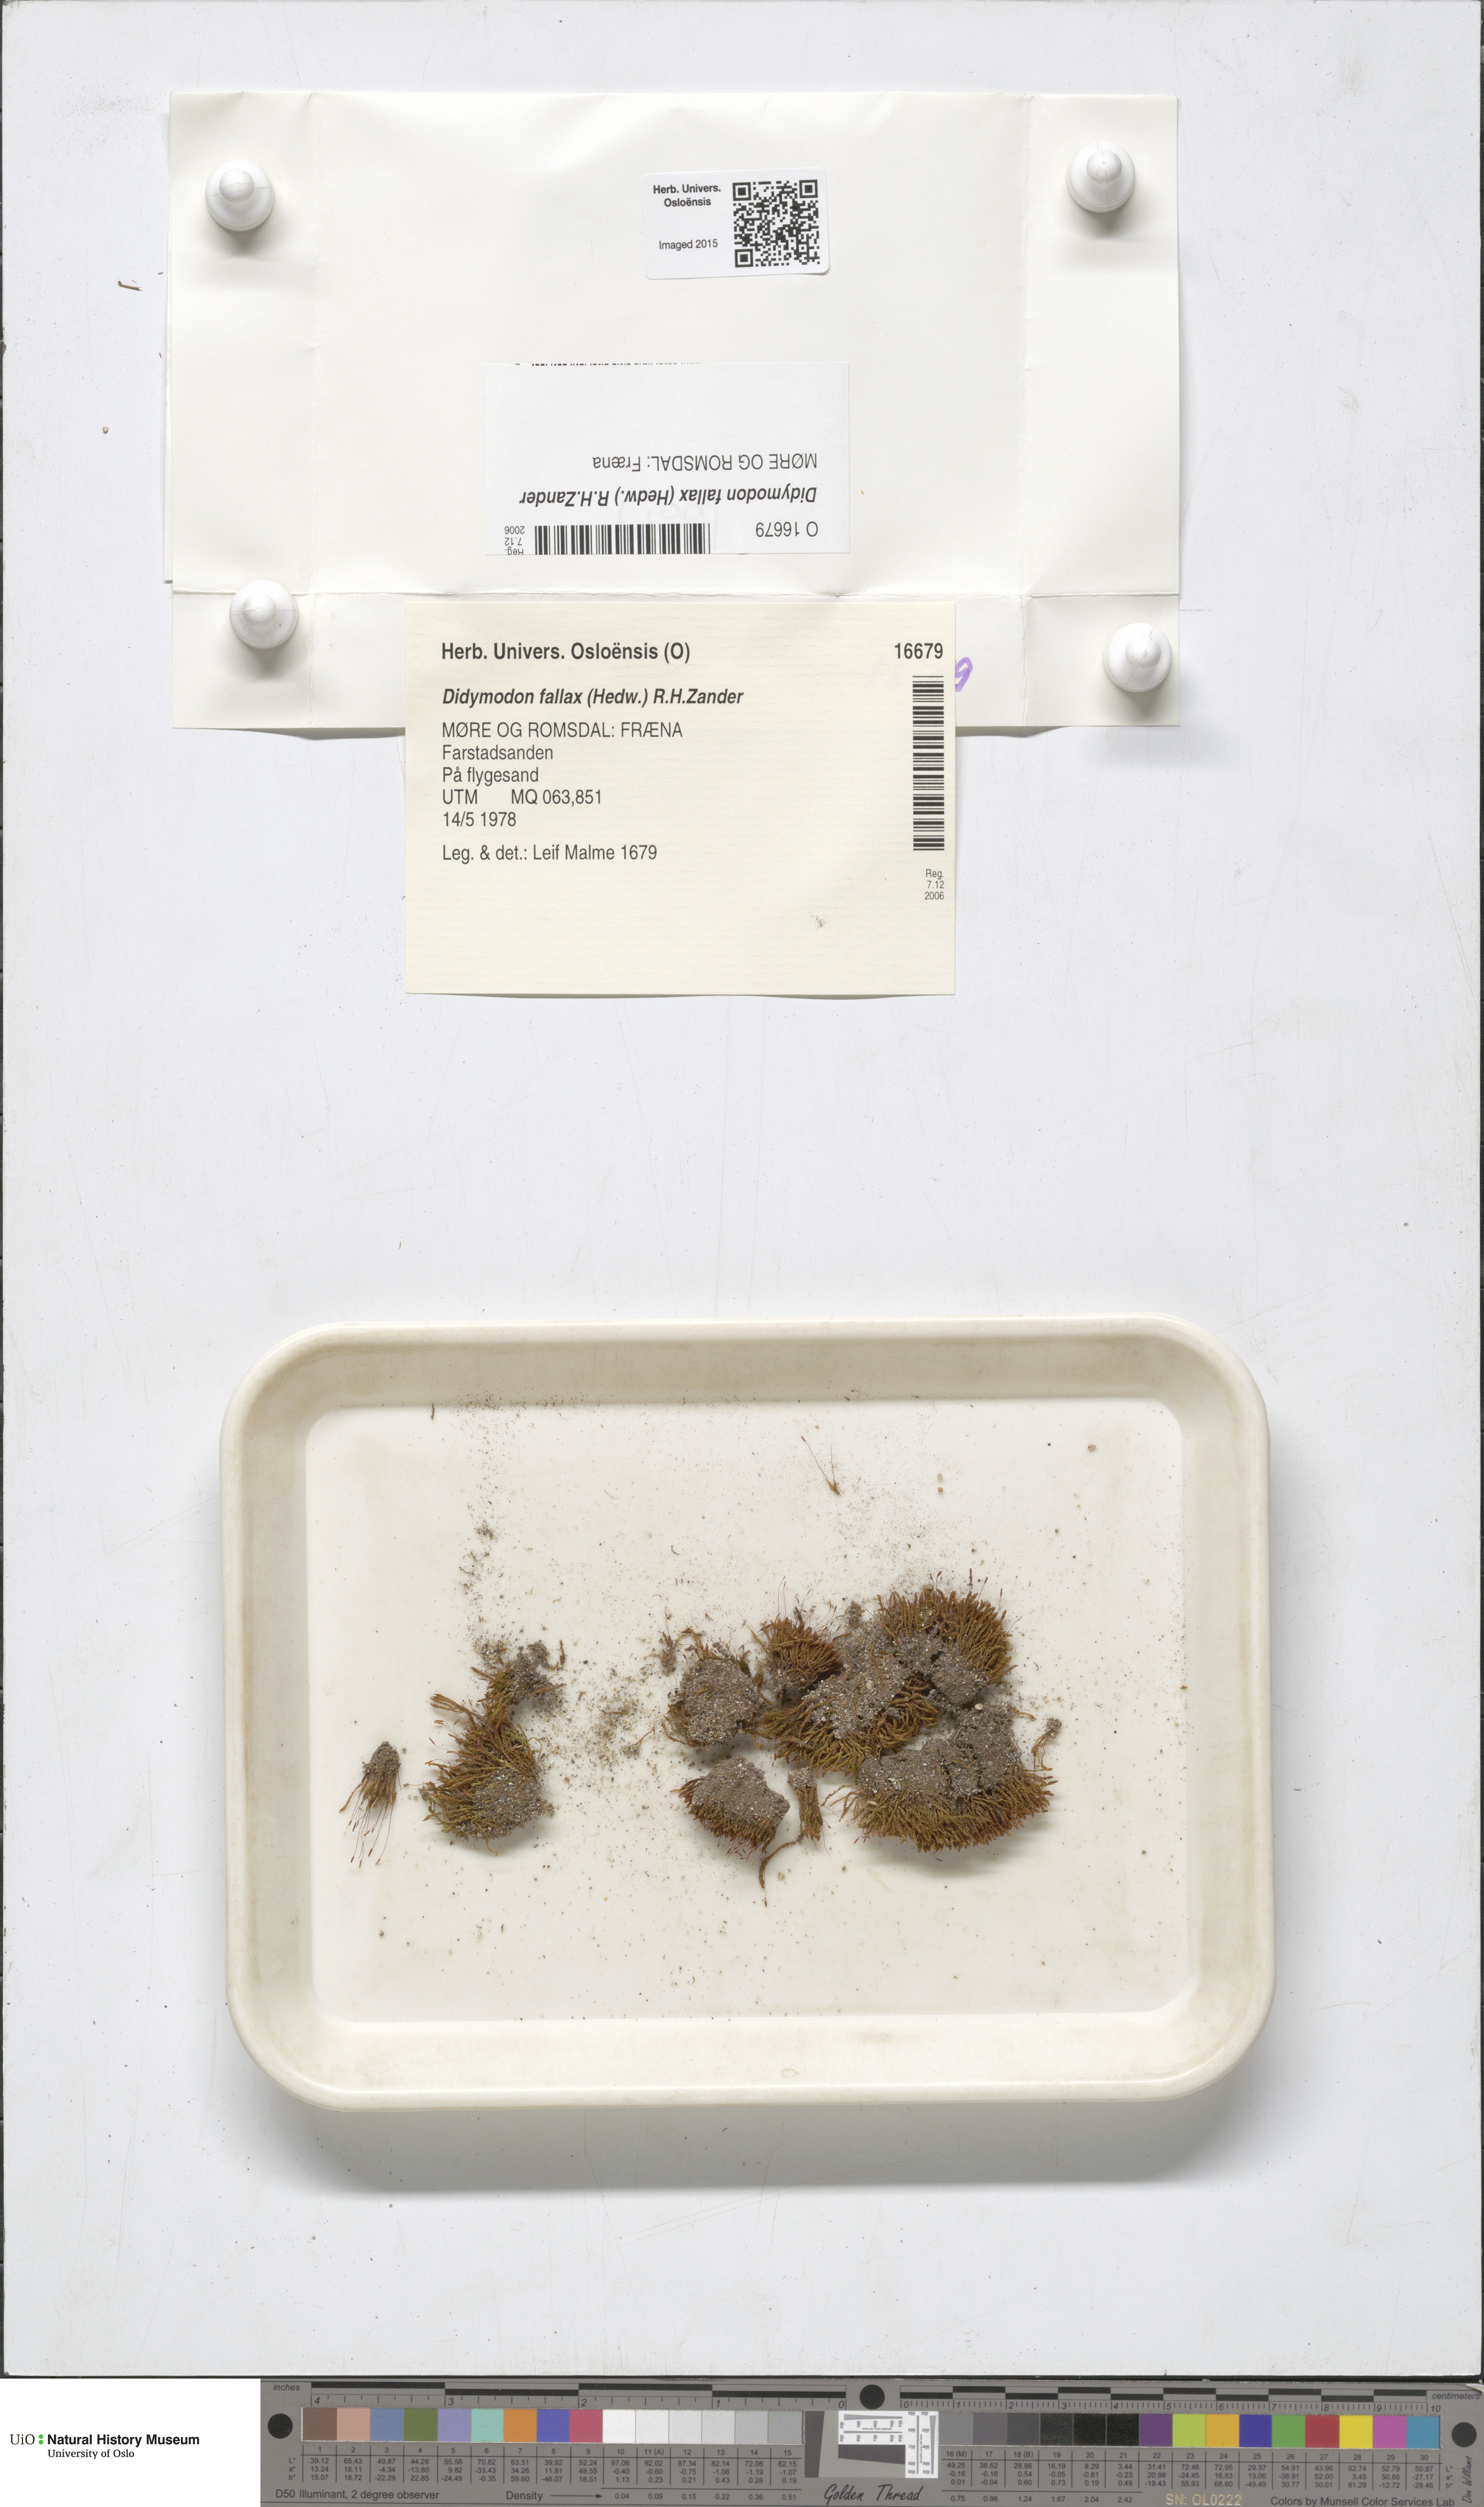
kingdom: Plantae
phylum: Bryophyta
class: Bryopsida
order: Pottiales
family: Pottiaceae
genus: Geheebia
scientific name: Geheebia fallax
